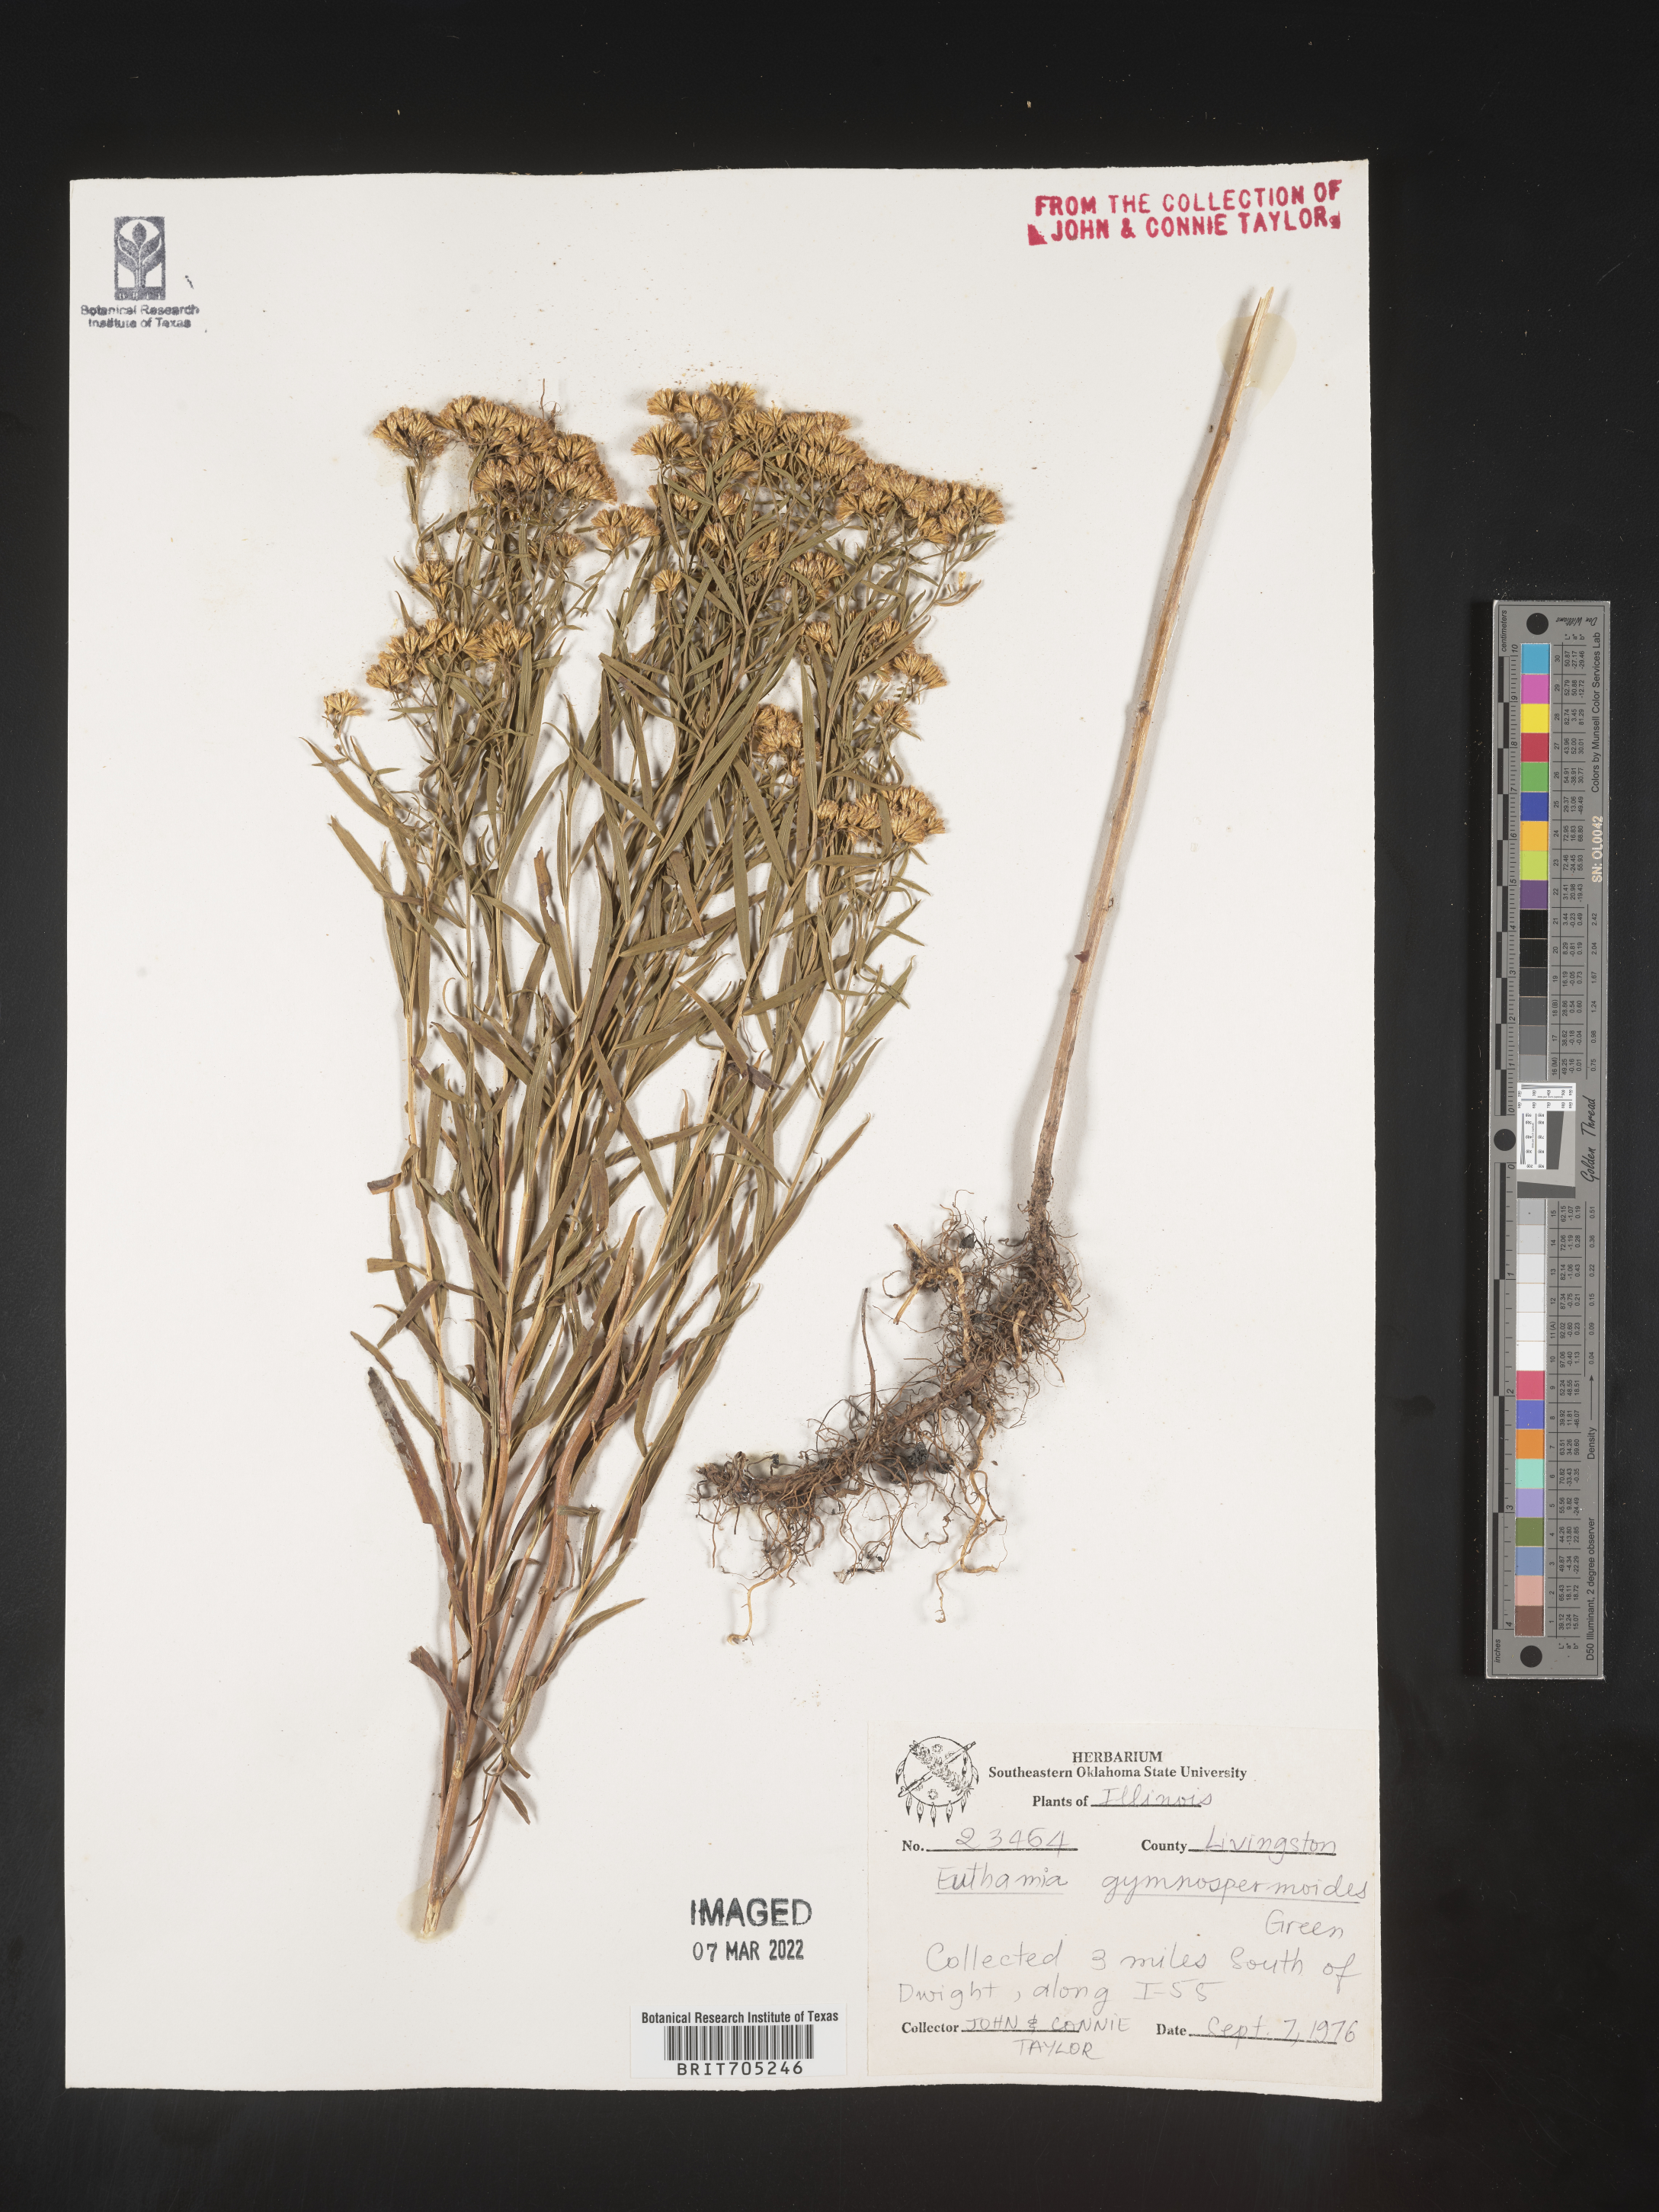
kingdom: Plantae
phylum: Tracheophyta
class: Magnoliopsida
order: Asterales
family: Asteraceae
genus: Euthamia
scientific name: Euthamia gymnospermoides
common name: Great plains goldentop
